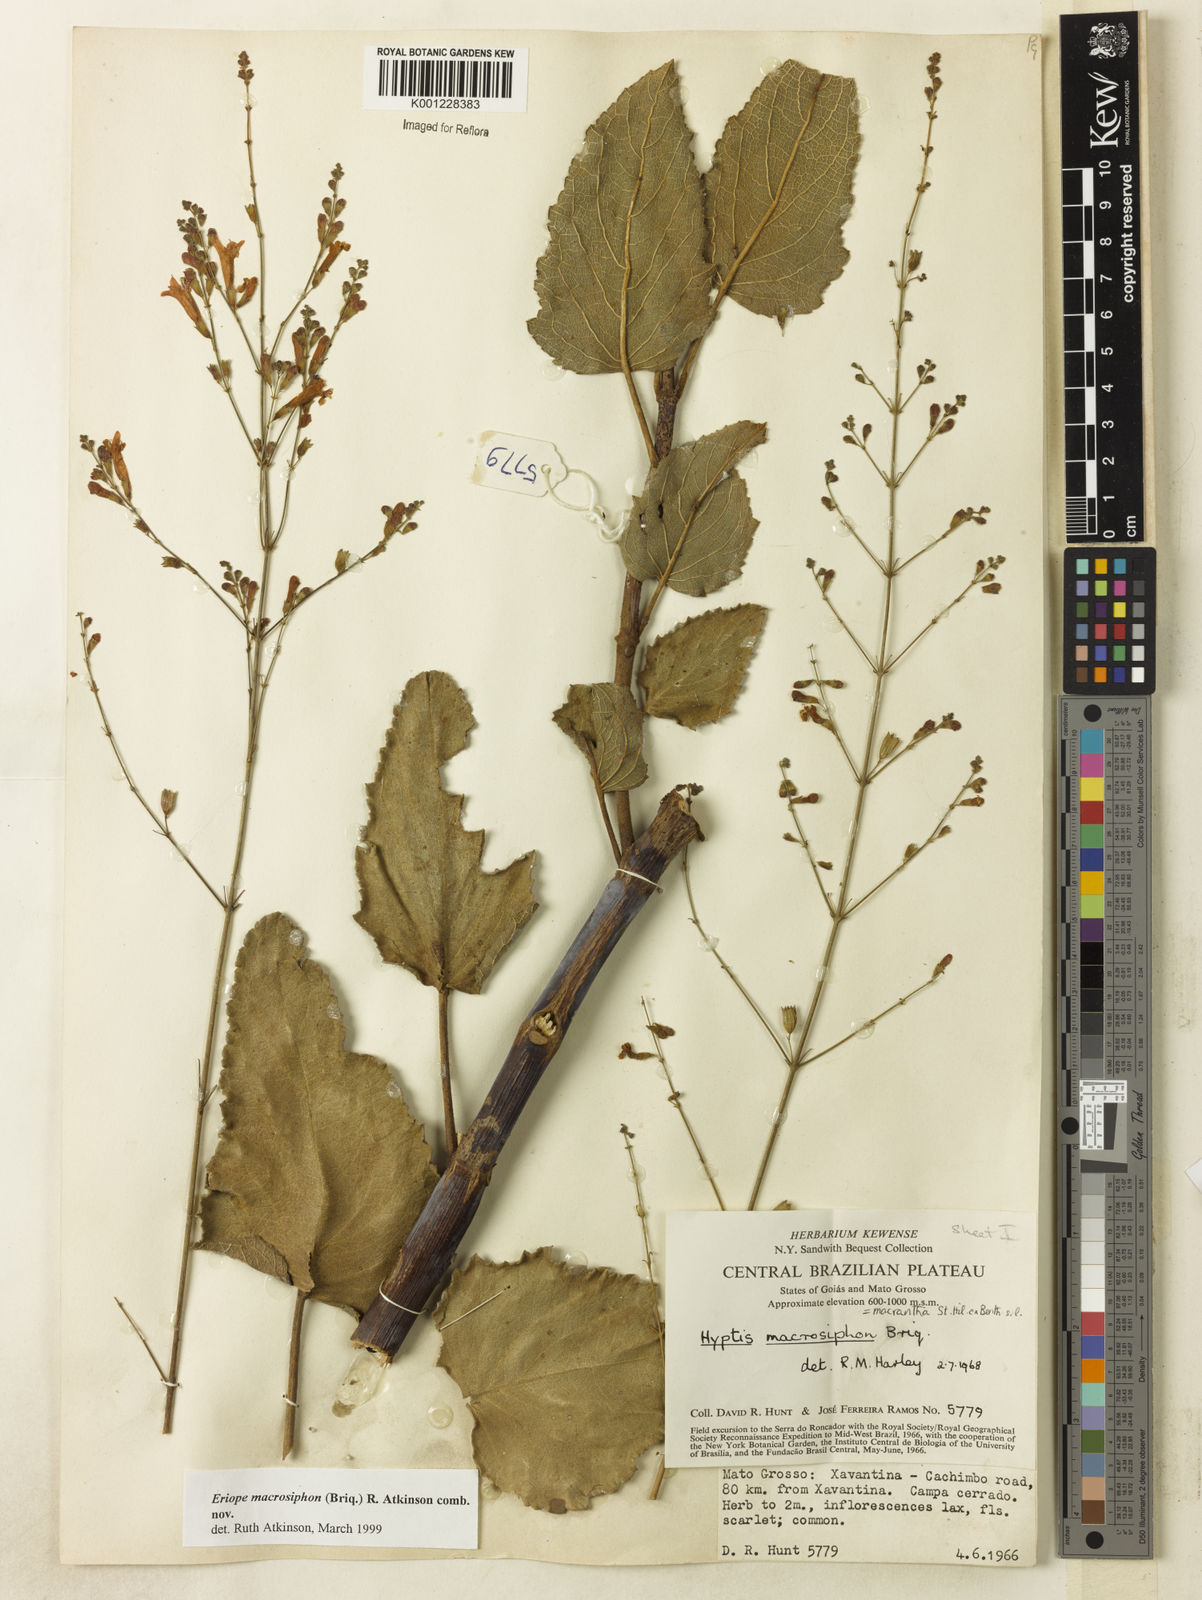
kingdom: Plantae
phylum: Tracheophyta
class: Magnoliopsida
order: Lamiales
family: Lamiaceae
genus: Hypenia
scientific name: Hypenia macrosiphon
